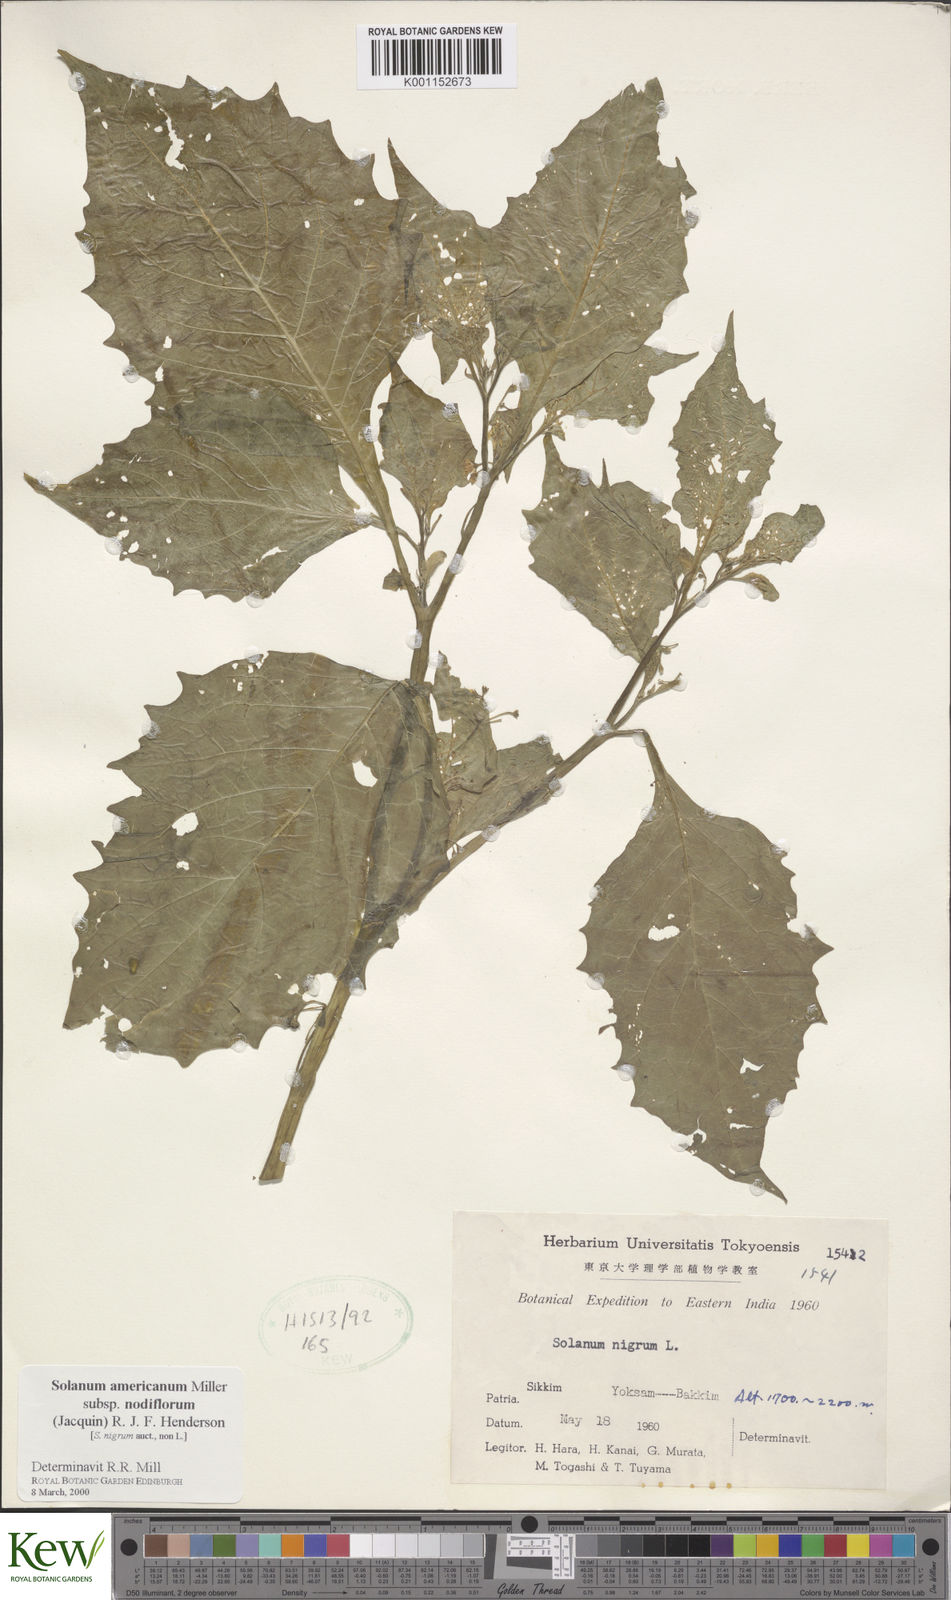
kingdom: Plantae
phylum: Tracheophyta
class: Magnoliopsida
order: Solanales
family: Solanaceae
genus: Solanum
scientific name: Solanum nigrum
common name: Black nightshade
